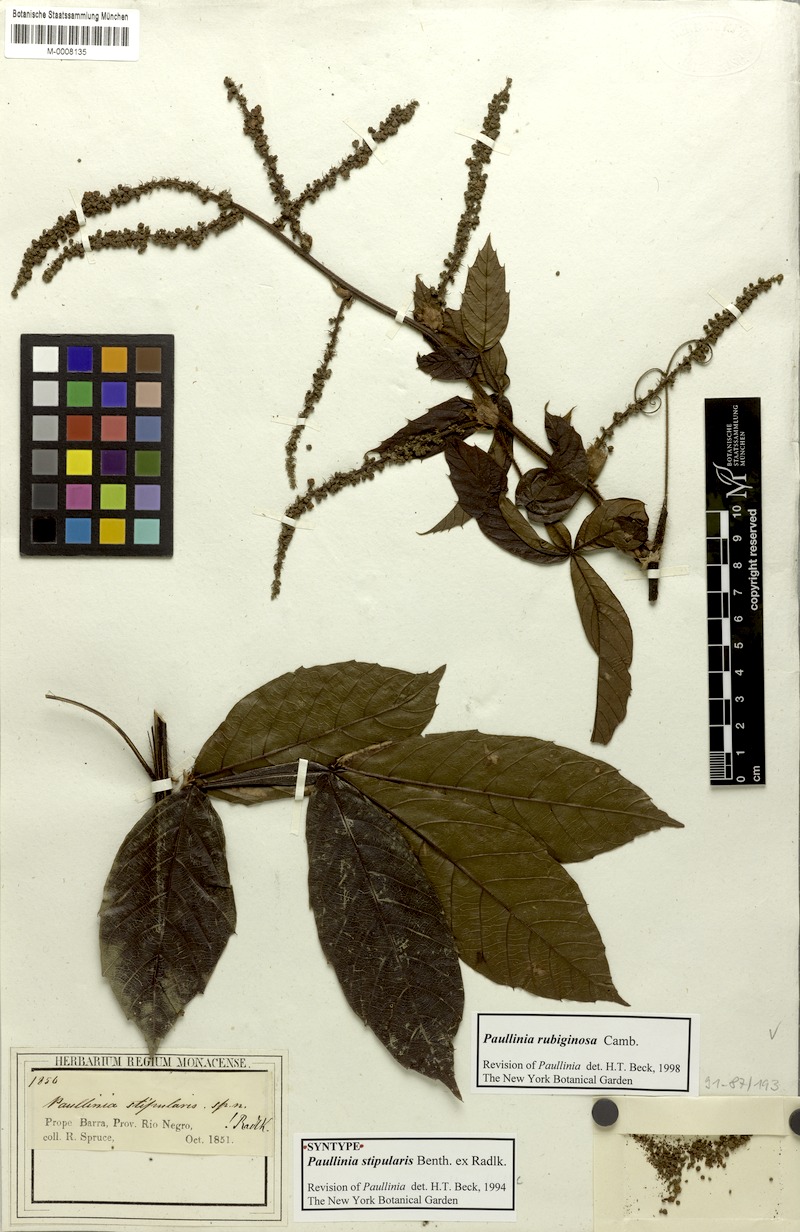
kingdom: Plantae
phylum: Tracheophyta
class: Magnoliopsida
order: Sapindales
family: Sapindaceae
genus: Paullinia
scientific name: Paullinia rubiginosa
